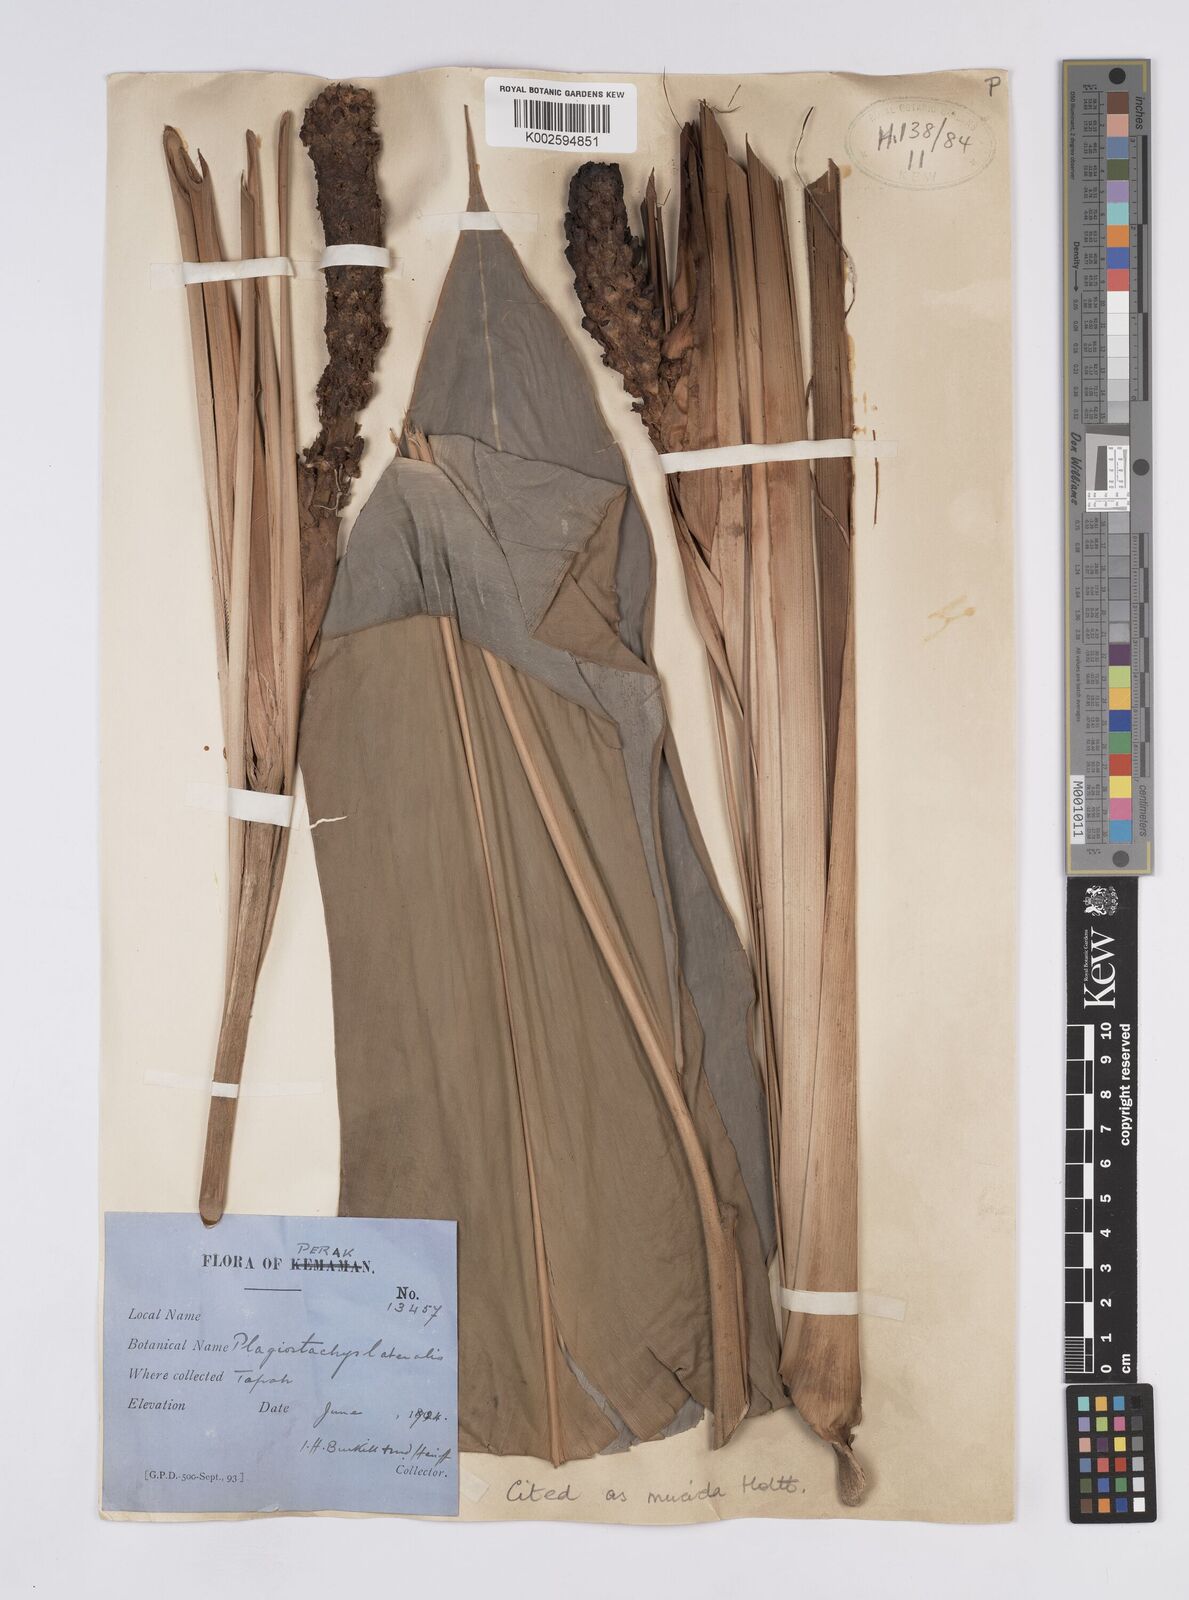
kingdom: Plantae
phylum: Tracheophyta
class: Liliopsida
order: Zingiberales
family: Zingiberaceae
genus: Plagiostachys
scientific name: Plagiostachys mucida
